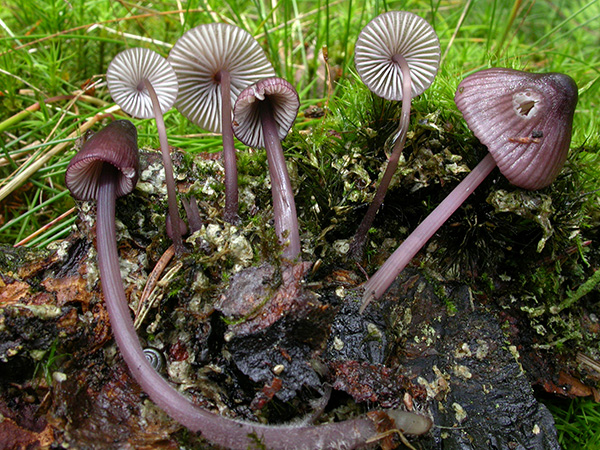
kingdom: Fungi
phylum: Basidiomycota
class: Agaricomycetes
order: Agaricales
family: Mycenaceae
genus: Mycena
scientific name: Mycena purpureofusca
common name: purpur-huesvamp
